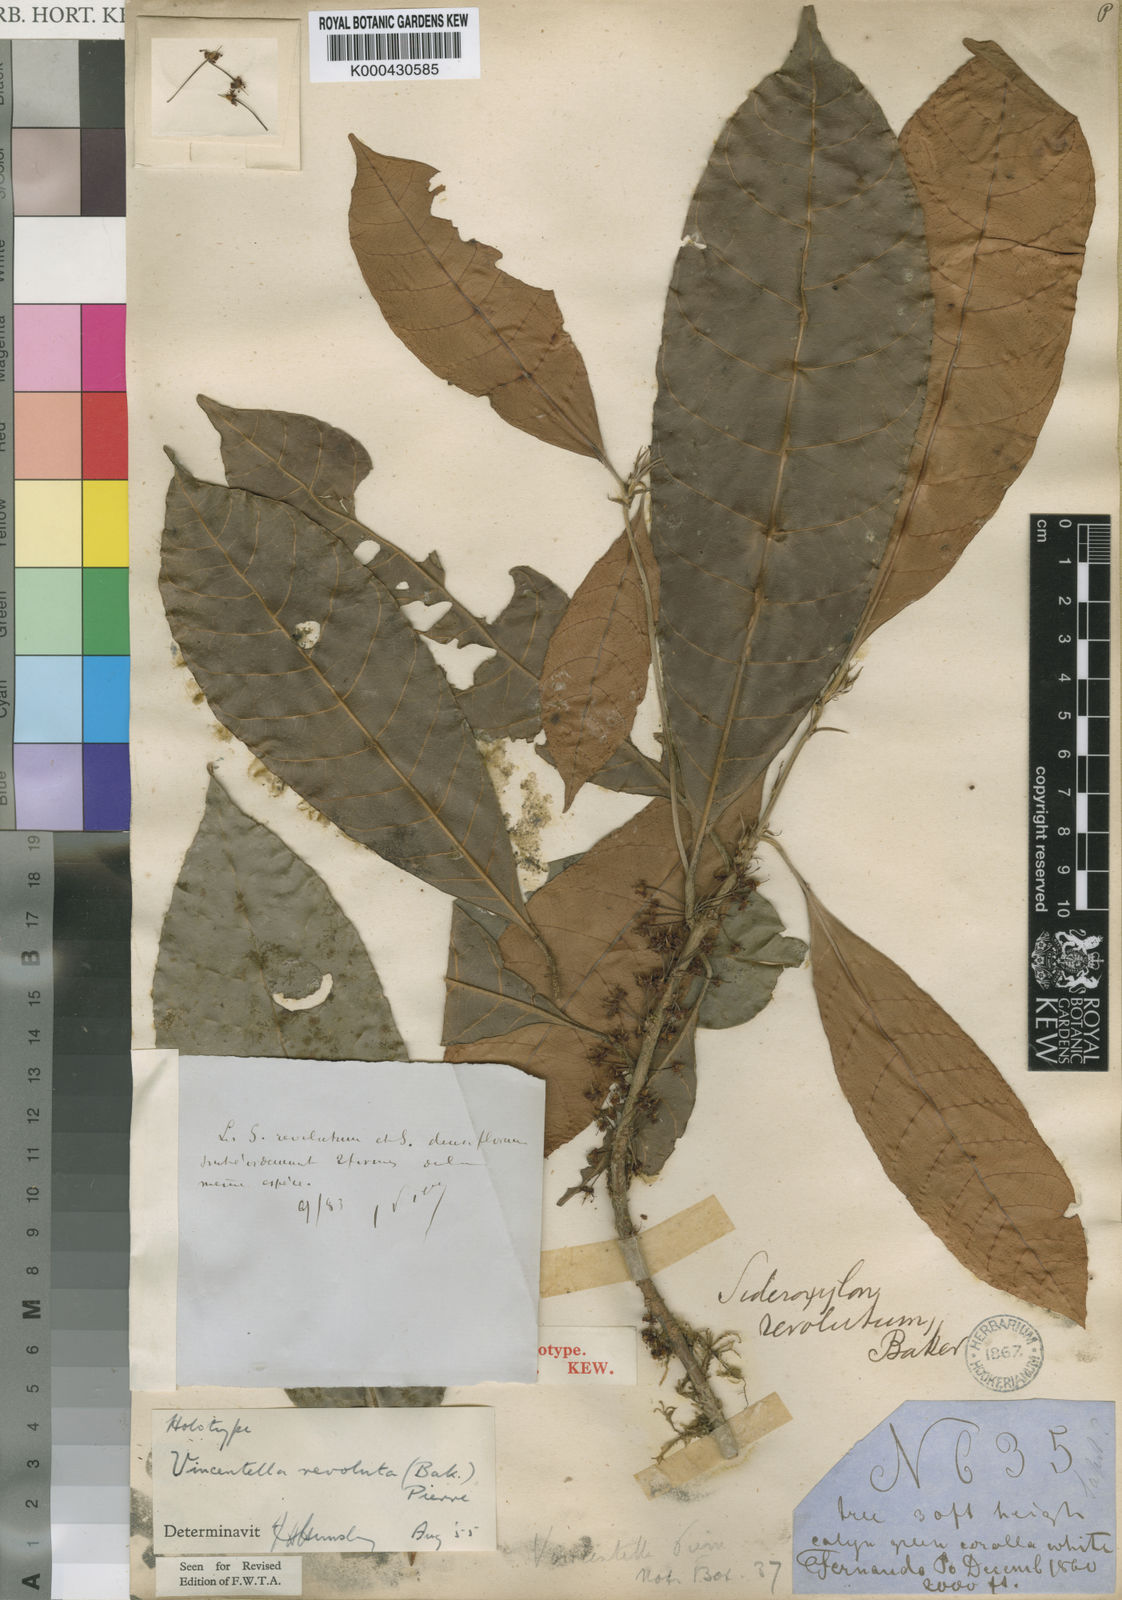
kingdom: Plantae
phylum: Tracheophyta
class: Magnoliopsida
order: Ericales
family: Sapotaceae
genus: Synsepalum
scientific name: Synsepalum revolutum
